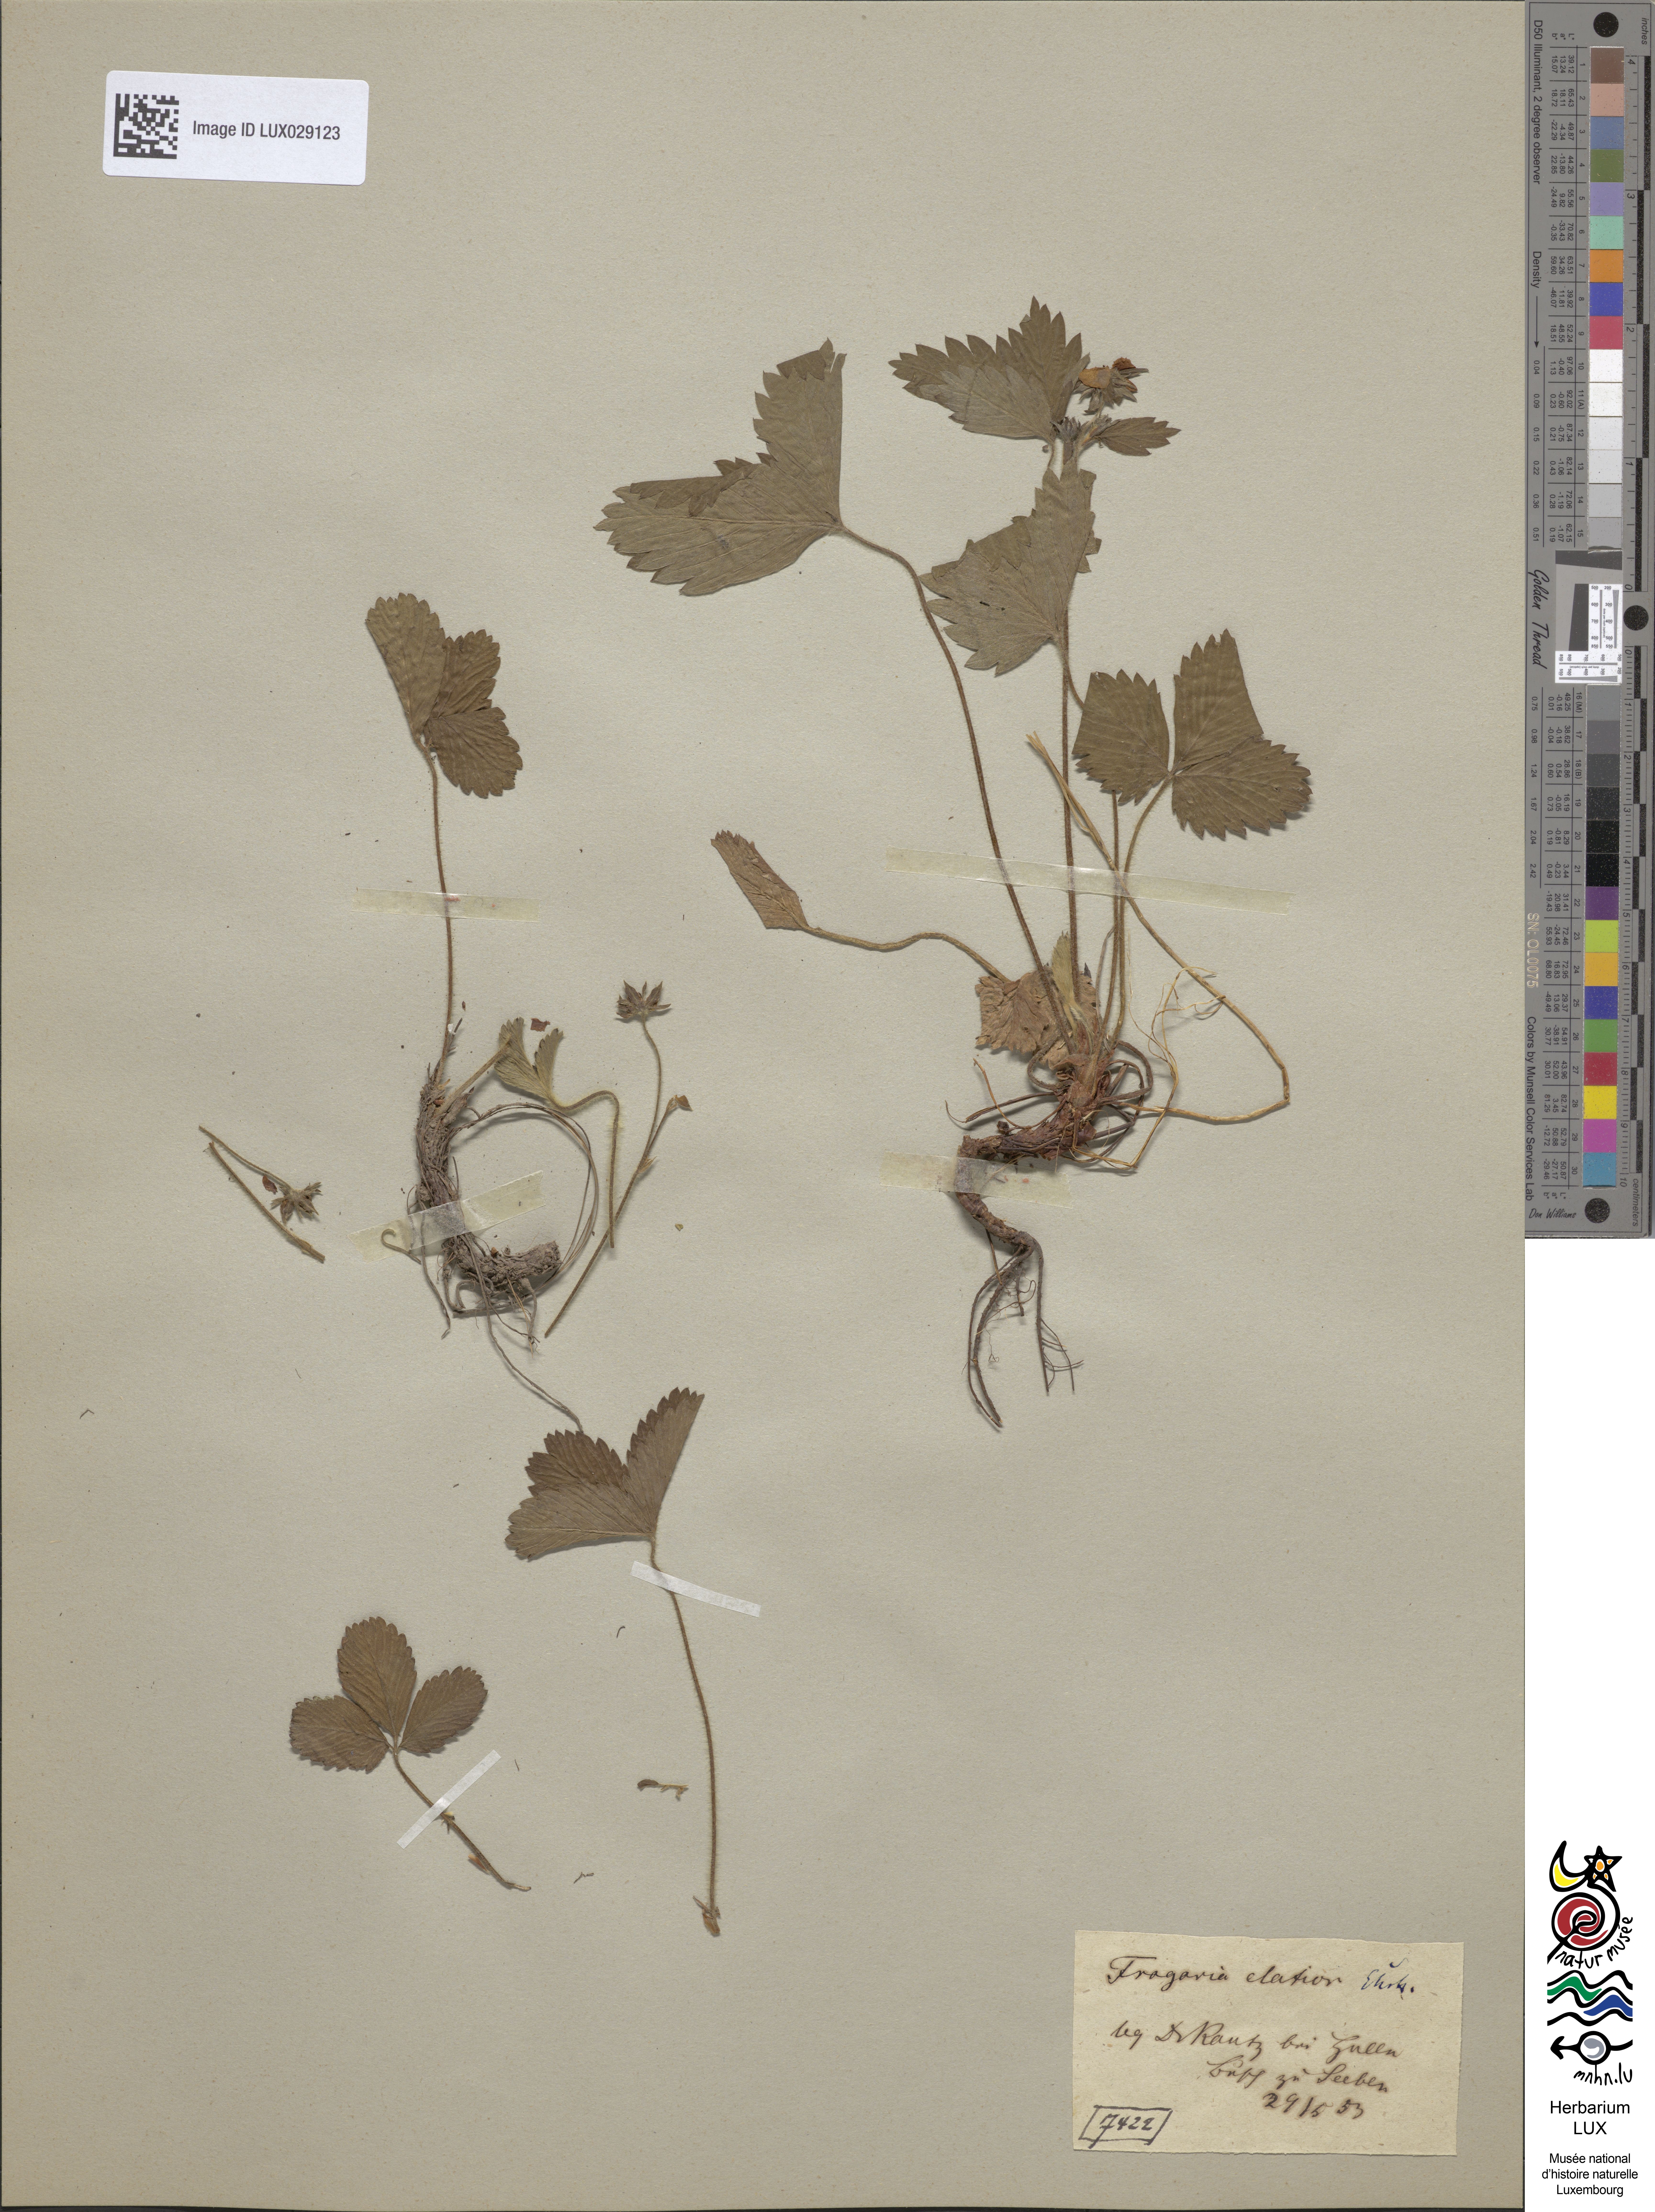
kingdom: Plantae
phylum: Tracheophyta
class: Magnoliopsida
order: Rosales
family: Rosaceae
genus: Fragaria
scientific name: Fragaria moschata
